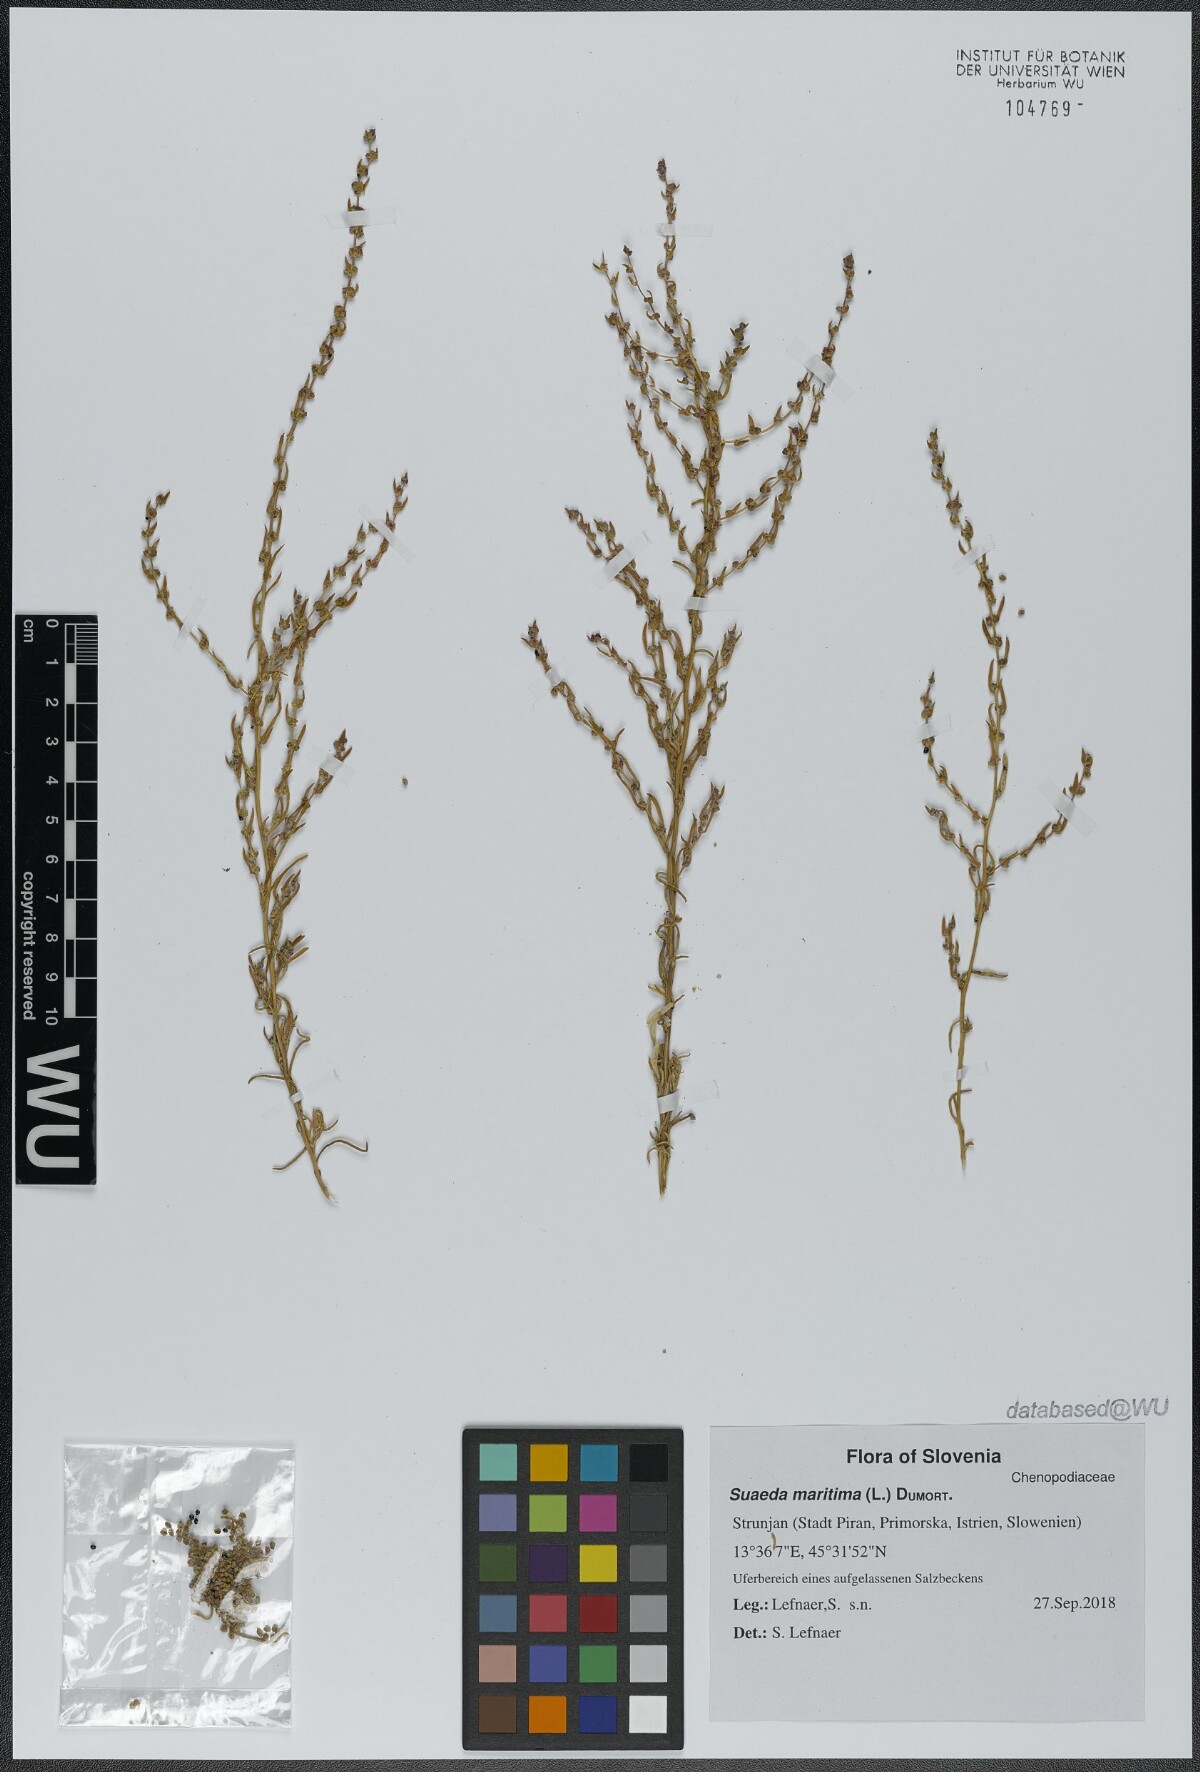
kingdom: Plantae
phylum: Tracheophyta
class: Magnoliopsida
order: Caryophyllales
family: Amaranthaceae
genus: Suaeda
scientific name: Suaeda maritima
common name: Annual sea-blite
